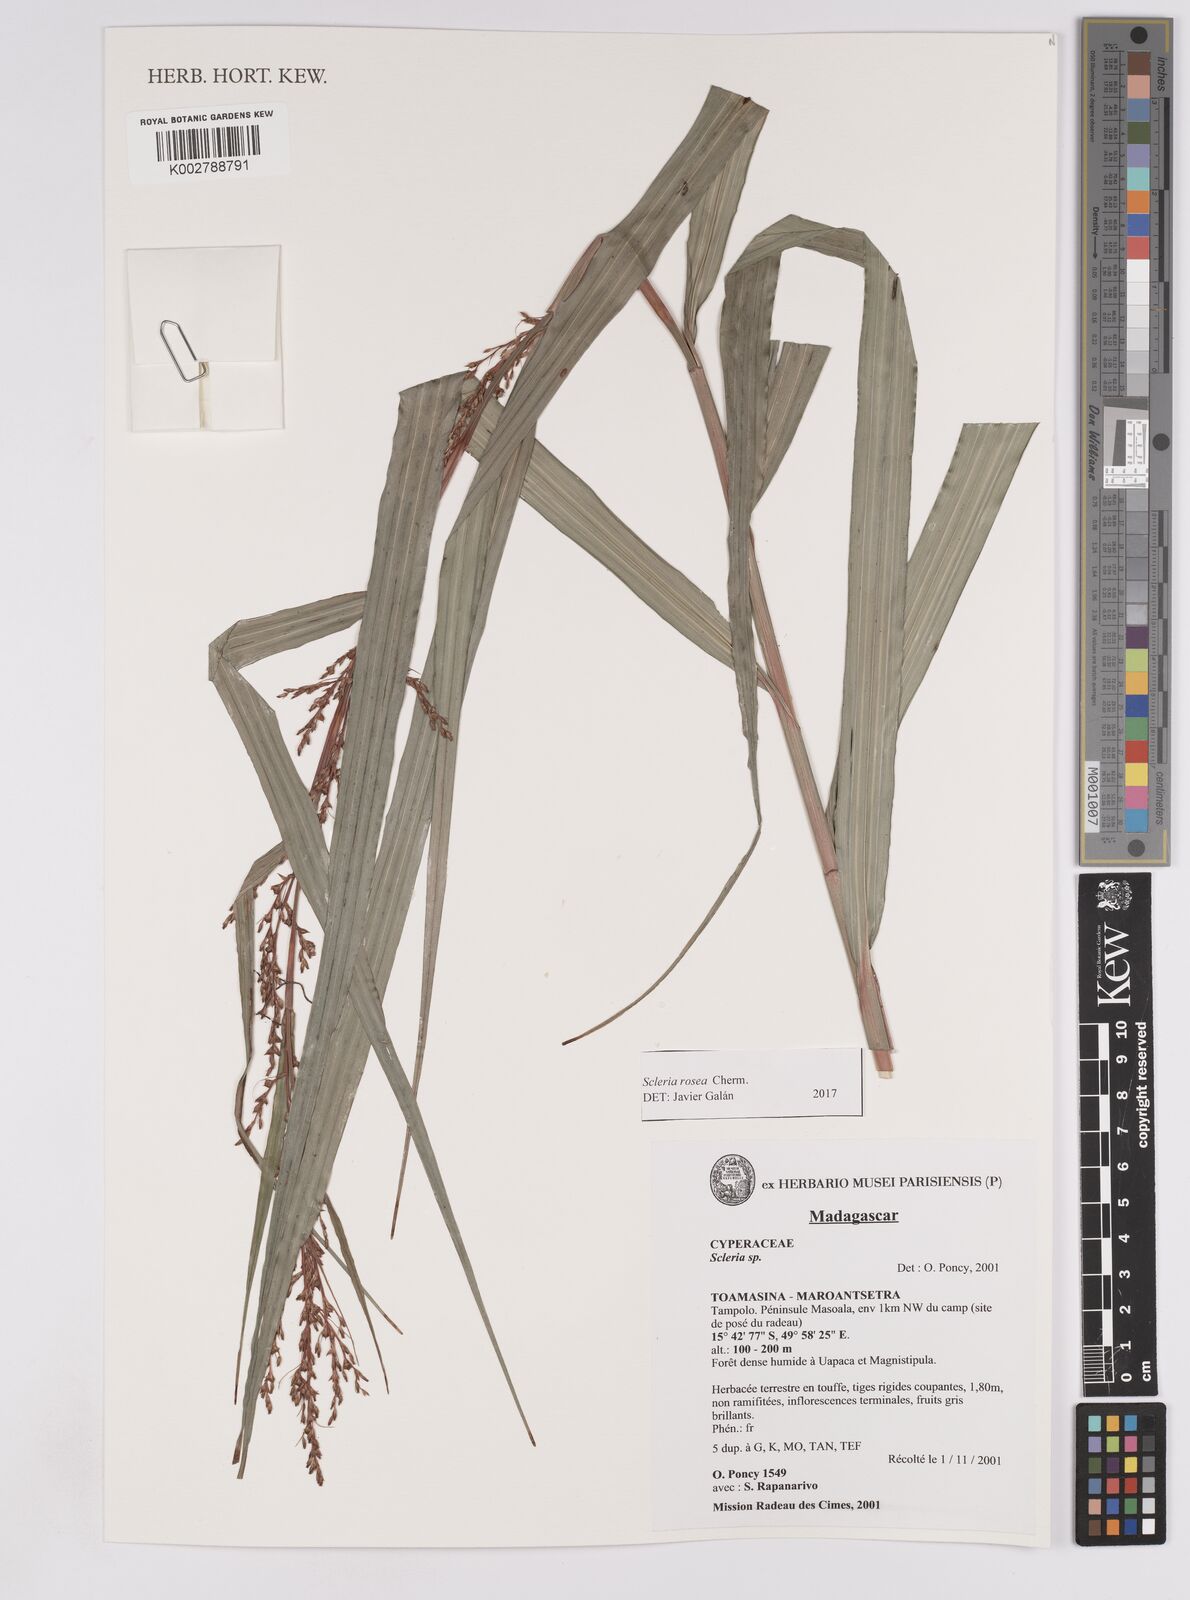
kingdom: Plantae
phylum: Tracheophyta
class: Liliopsida
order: Poales
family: Cyperaceae
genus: Scleria
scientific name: Scleria trialata
